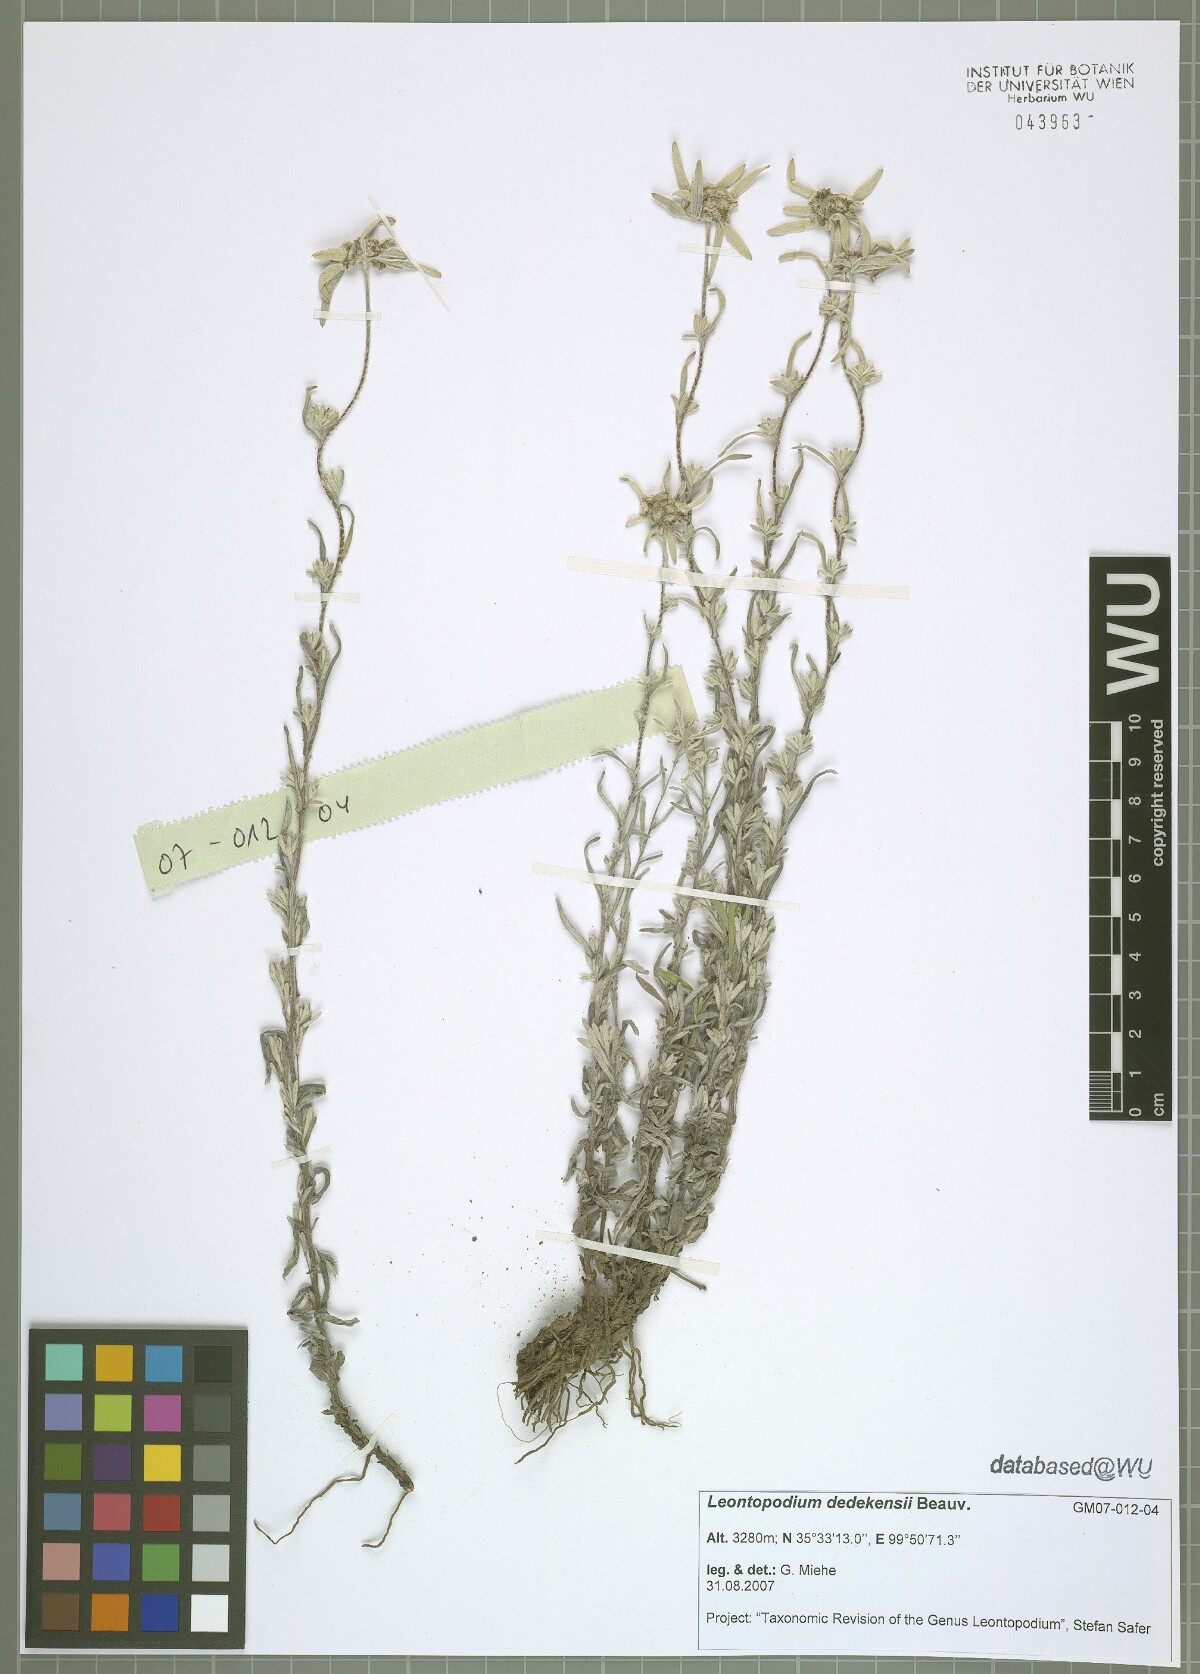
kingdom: Plantae
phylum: Tracheophyta
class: Magnoliopsida
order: Asterales
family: Asteraceae
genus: Leontopodium
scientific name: Leontopodium dedekensii
